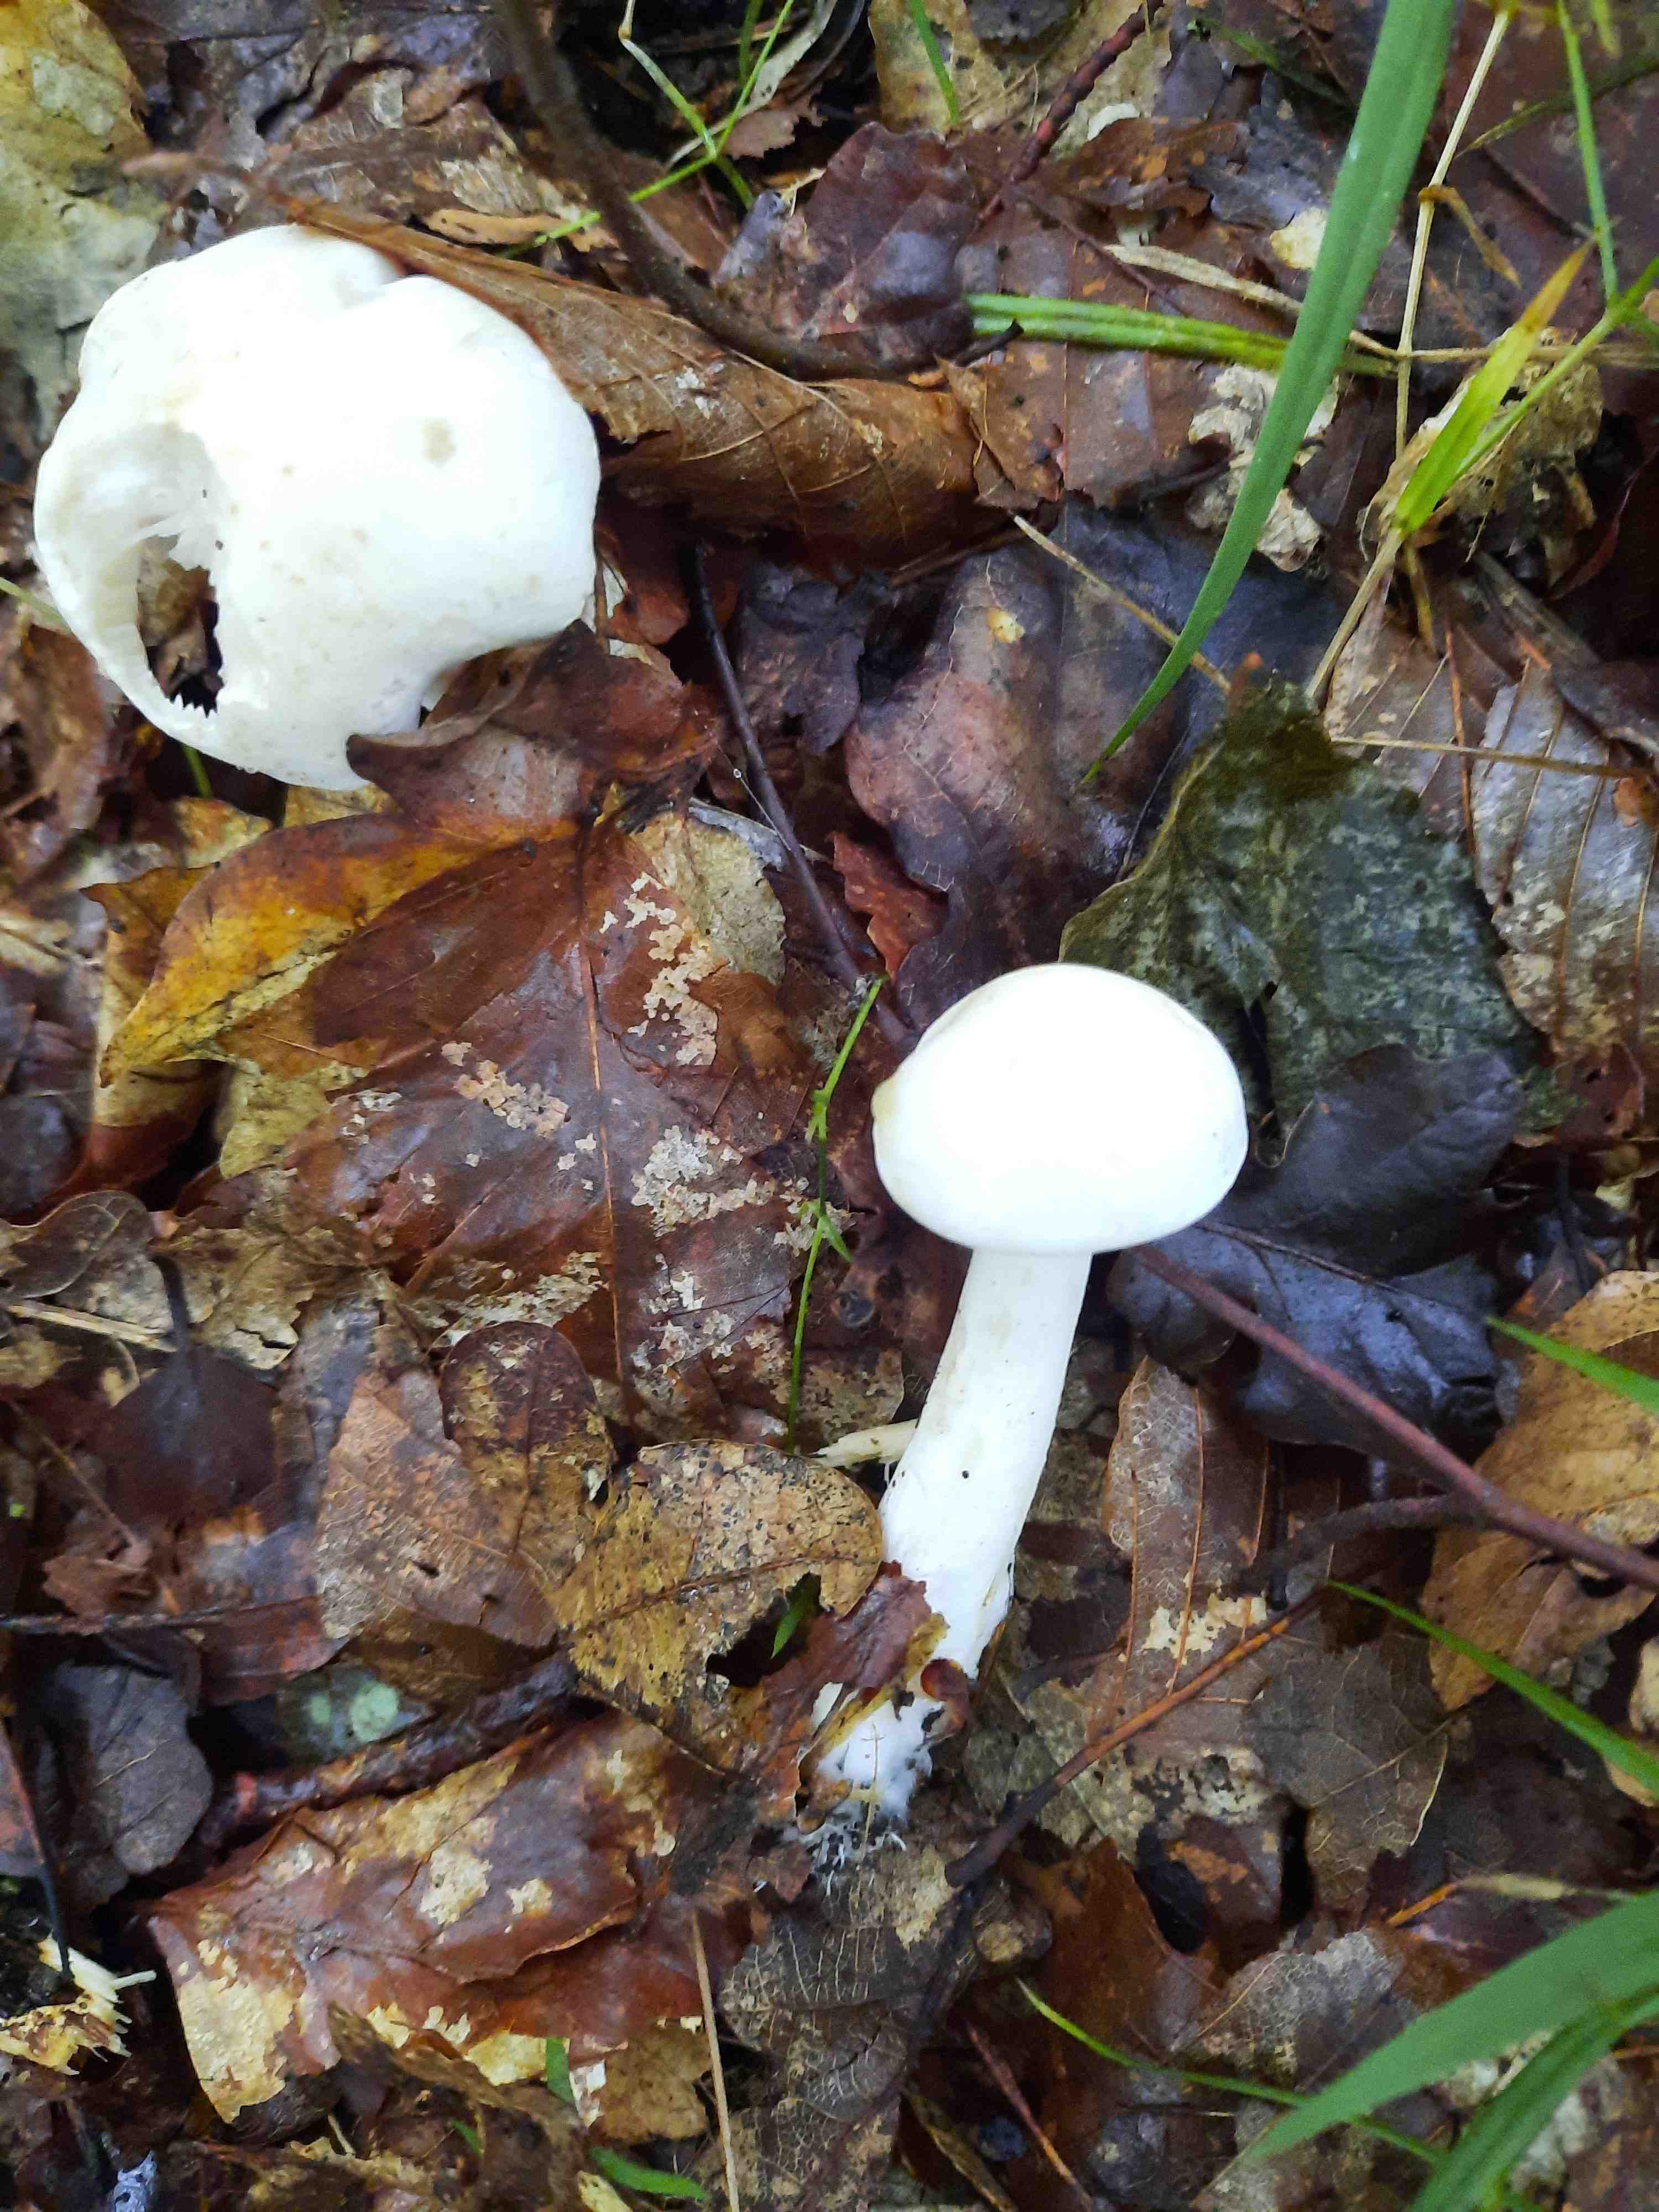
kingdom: Fungi
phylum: Basidiomycota
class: Agaricomycetes
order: Agaricales
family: Tricholomataceae
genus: Tricholoma
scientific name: Tricholoma
